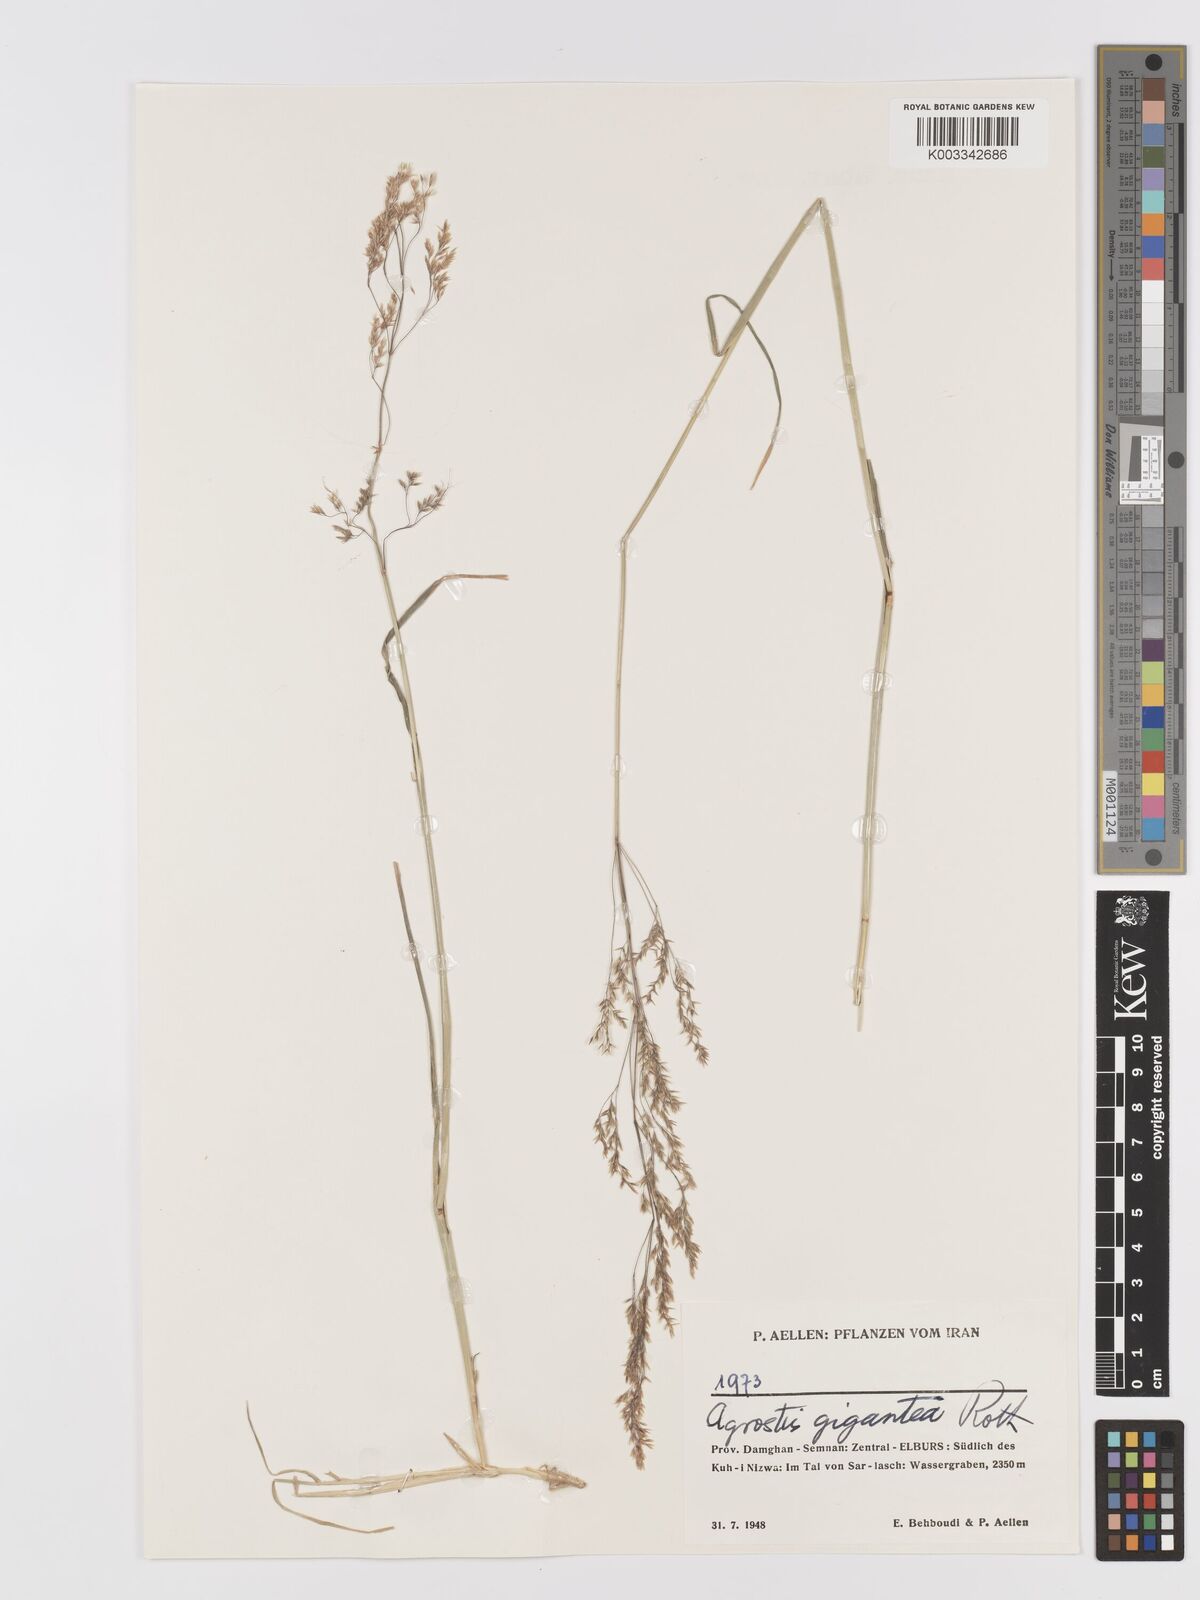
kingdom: Plantae
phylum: Tracheophyta
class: Liliopsida
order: Poales
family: Poaceae
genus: Agrostis
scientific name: Agrostis gigantea
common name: Black bent
